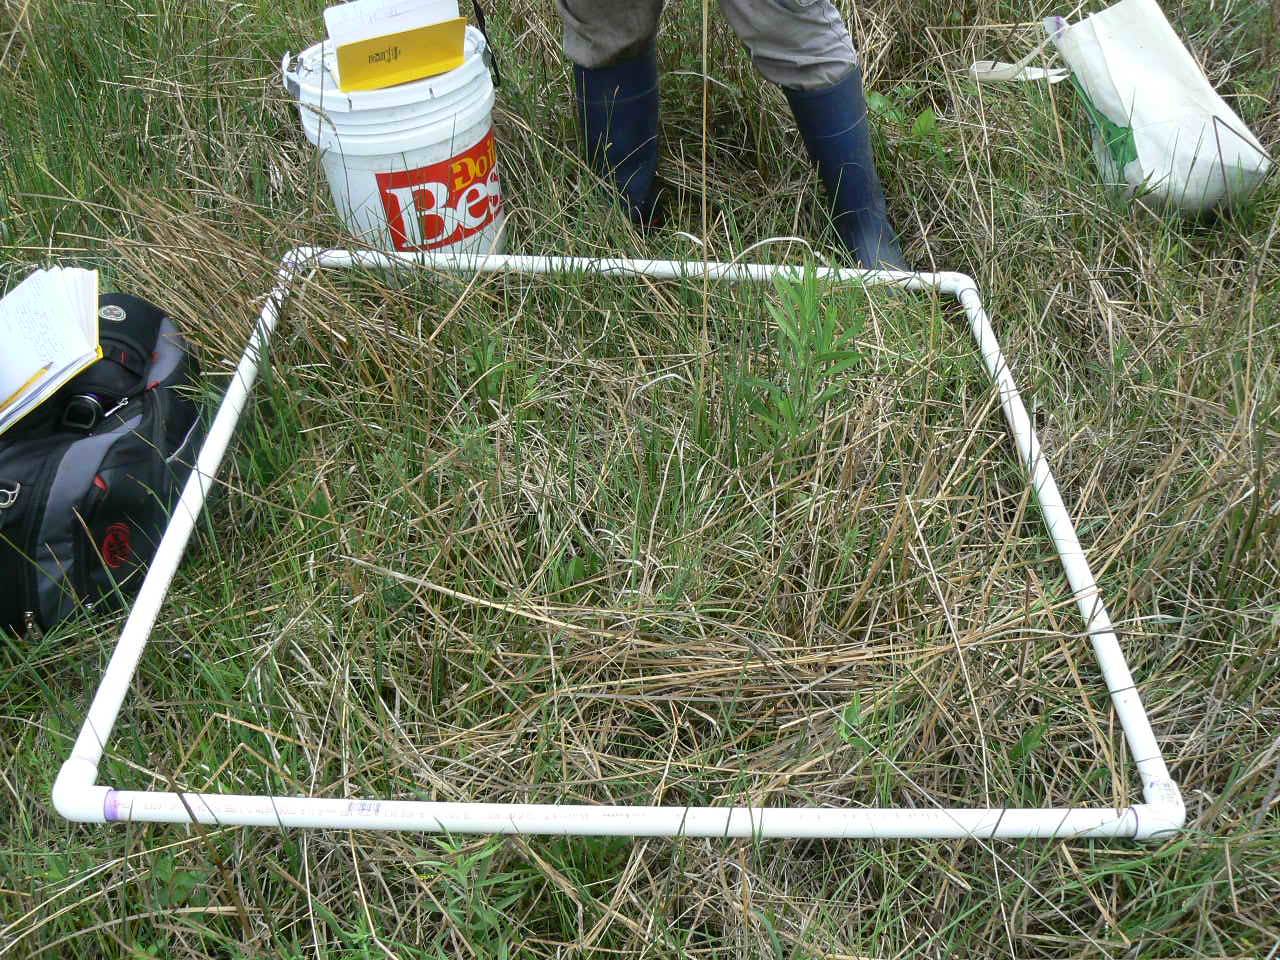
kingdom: Plantae
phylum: Tracheophyta
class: Liliopsida
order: Poales
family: Poaceae
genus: Glyceria
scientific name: Glyceria striata
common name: Fowl manna grass
